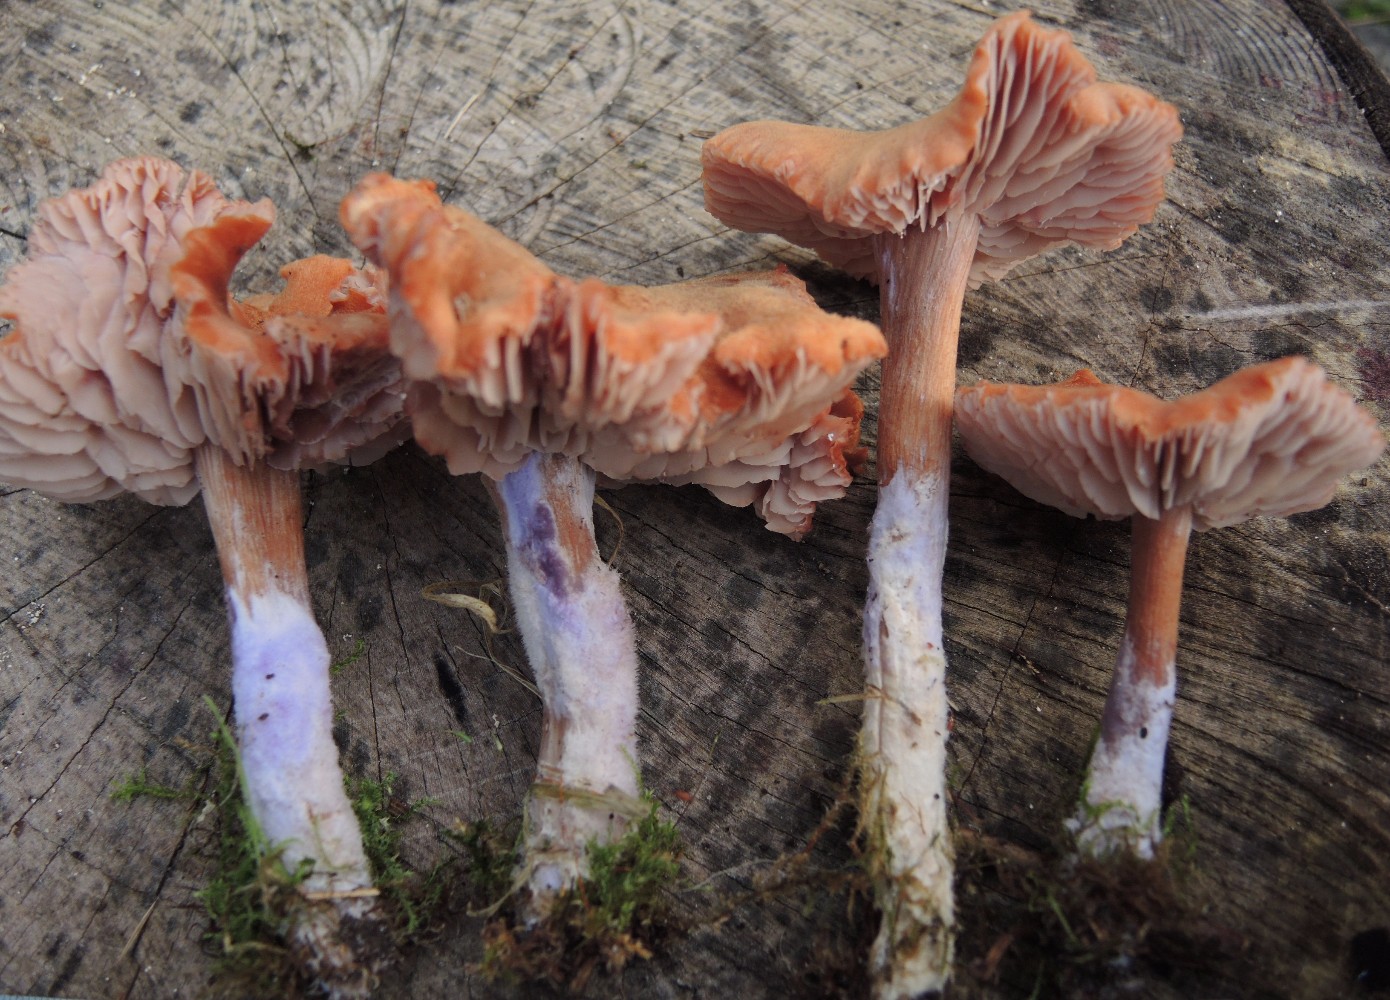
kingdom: Fungi
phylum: Basidiomycota
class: Agaricomycetes
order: Agaricales
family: Hydnangiaceae
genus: Laccaria
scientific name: Laccaria bicolor
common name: tvefarvet ametysthat
